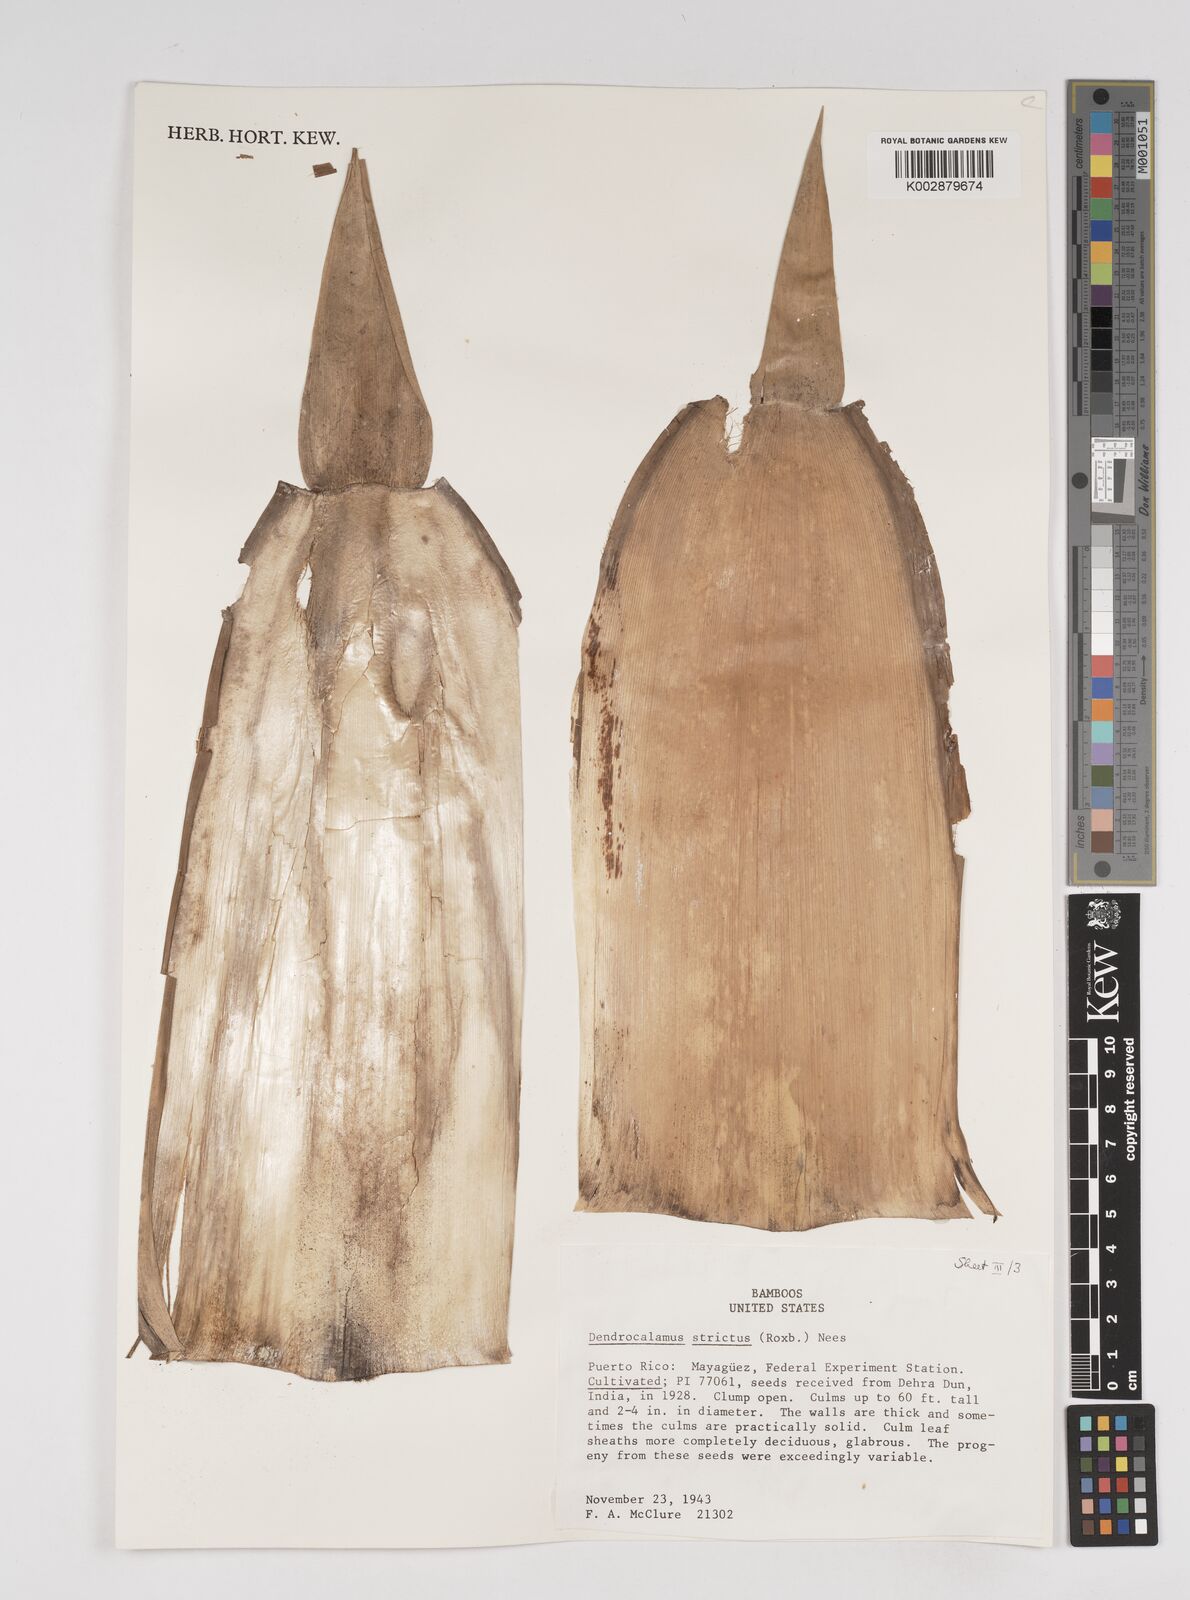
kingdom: Plantae
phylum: Tracheophyta
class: Liliopsida
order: Poales
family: Poaceae
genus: Dendrocalamus
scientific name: Dendrocalamus strictus
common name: Male bamboo
